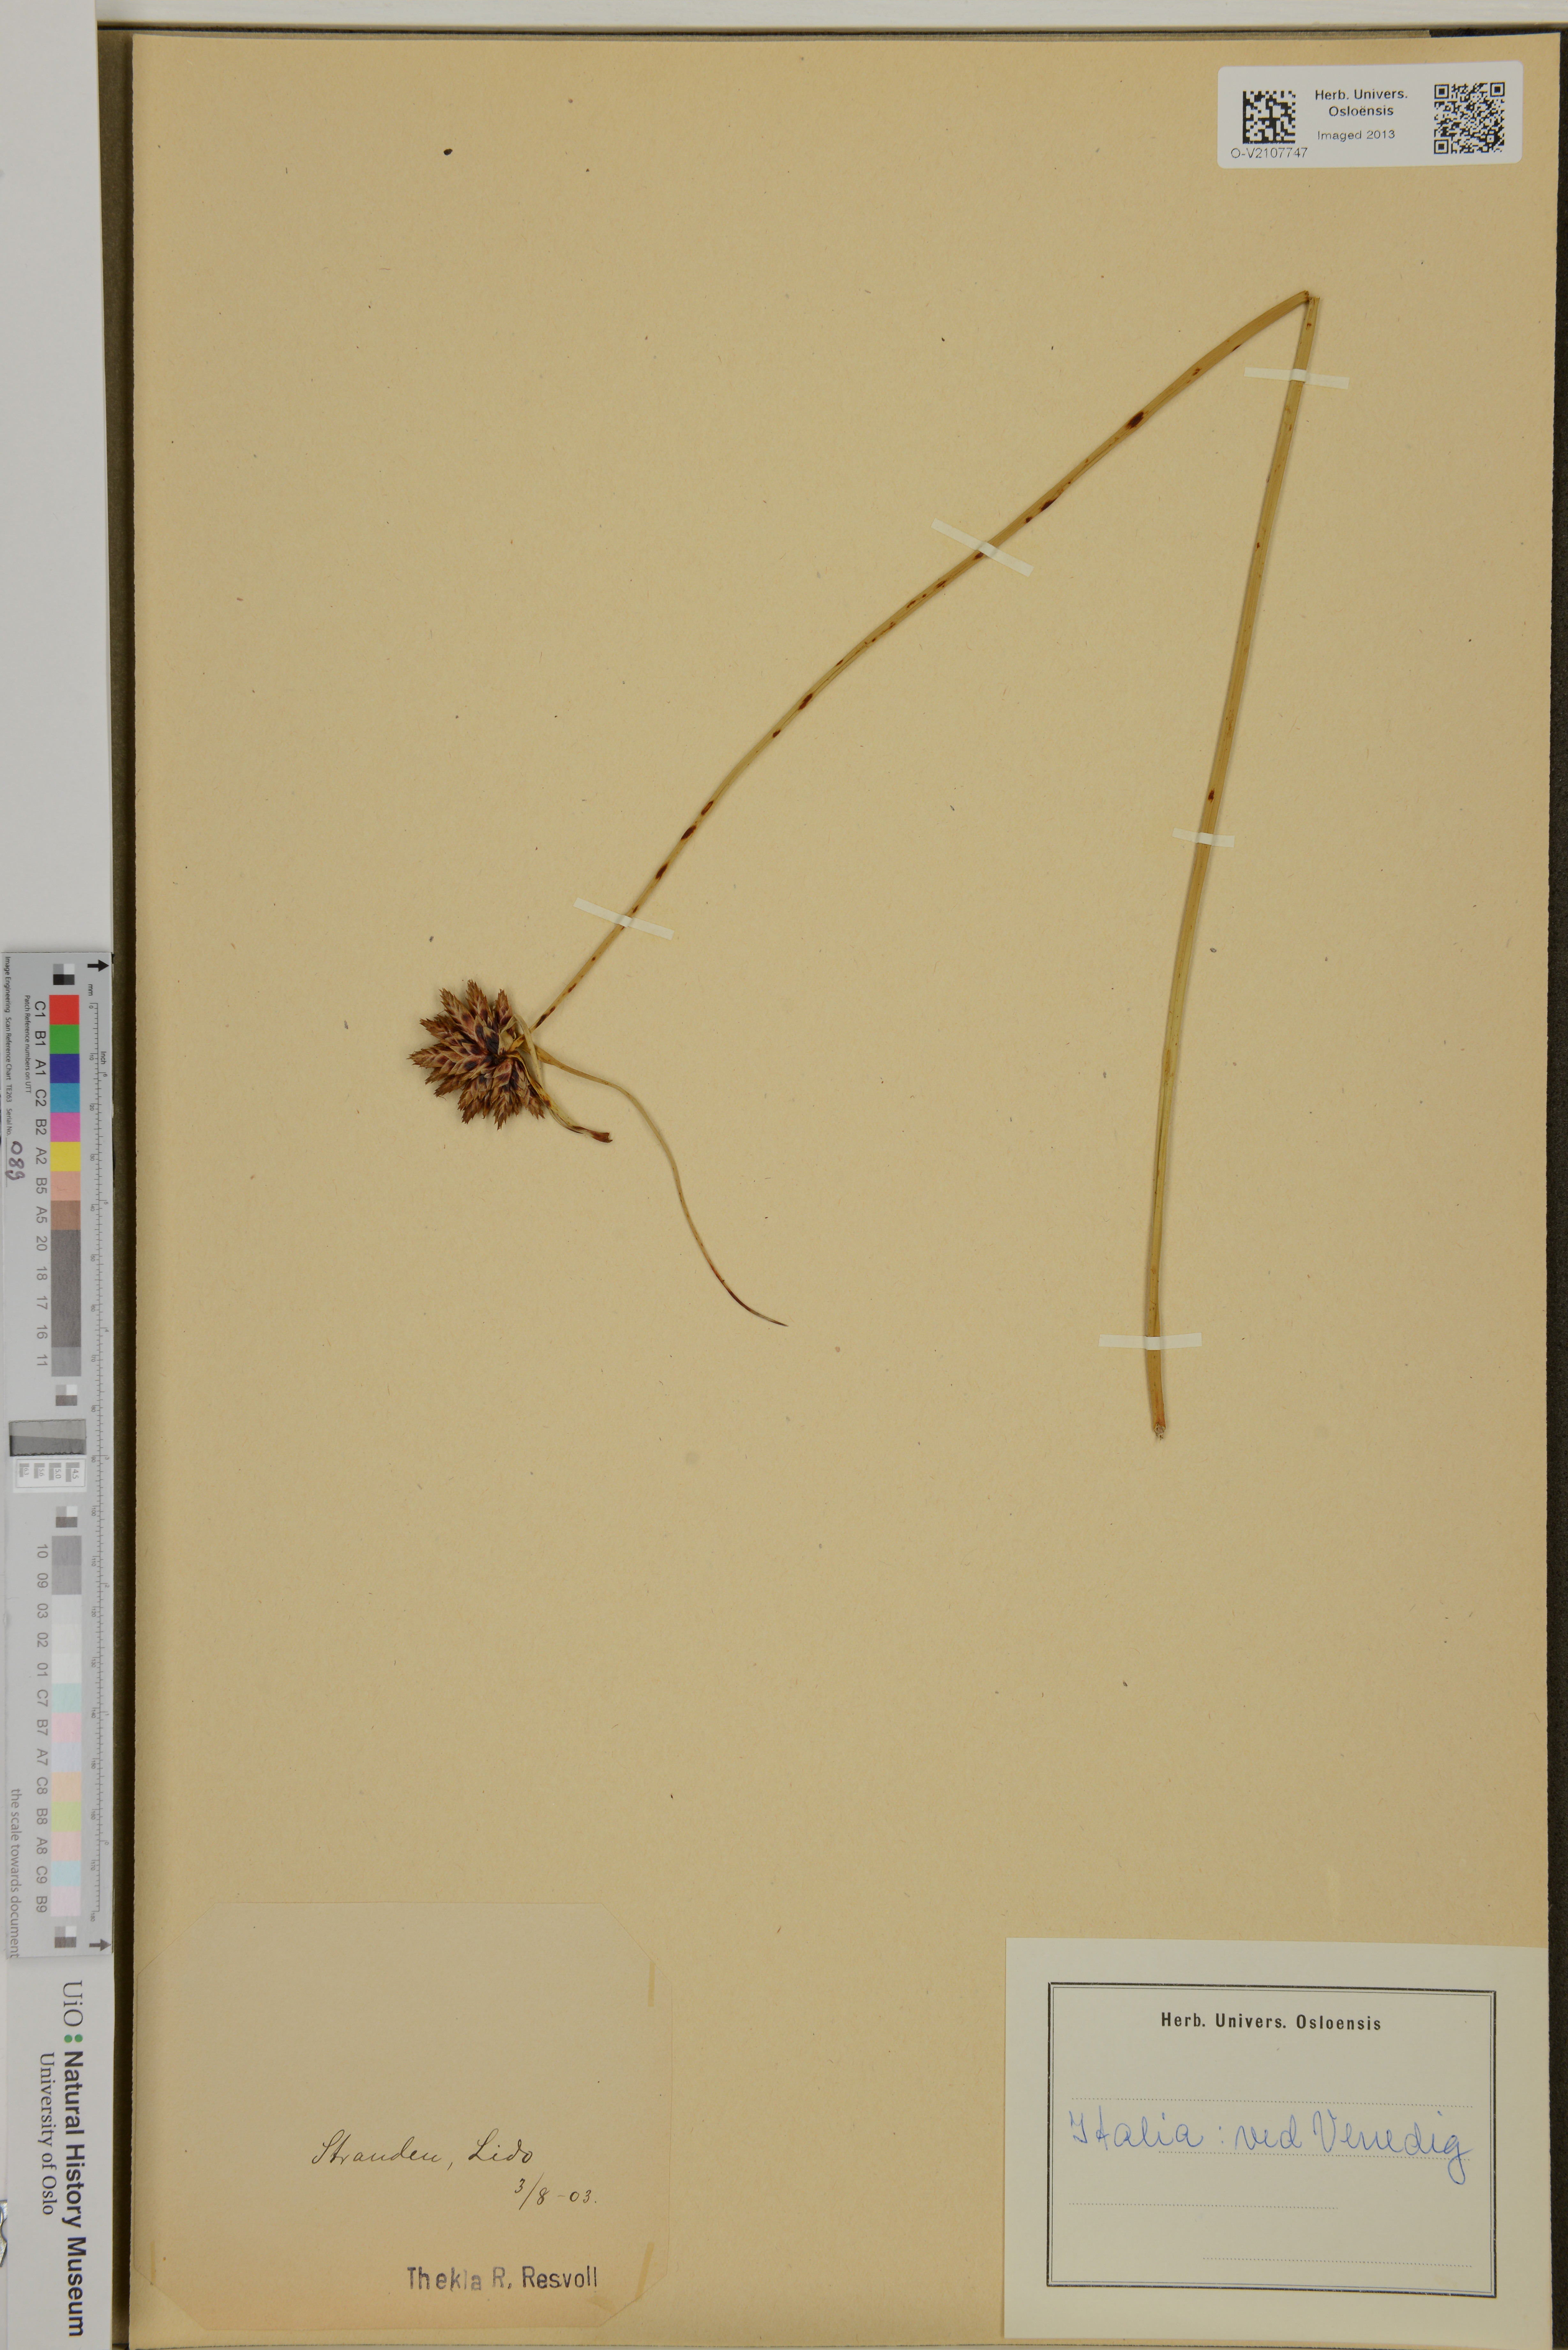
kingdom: Plantae
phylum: Tracheophyta
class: Liliopsida
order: Poales
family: Cyperaceae
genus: Cyperus
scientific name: Cyperus
